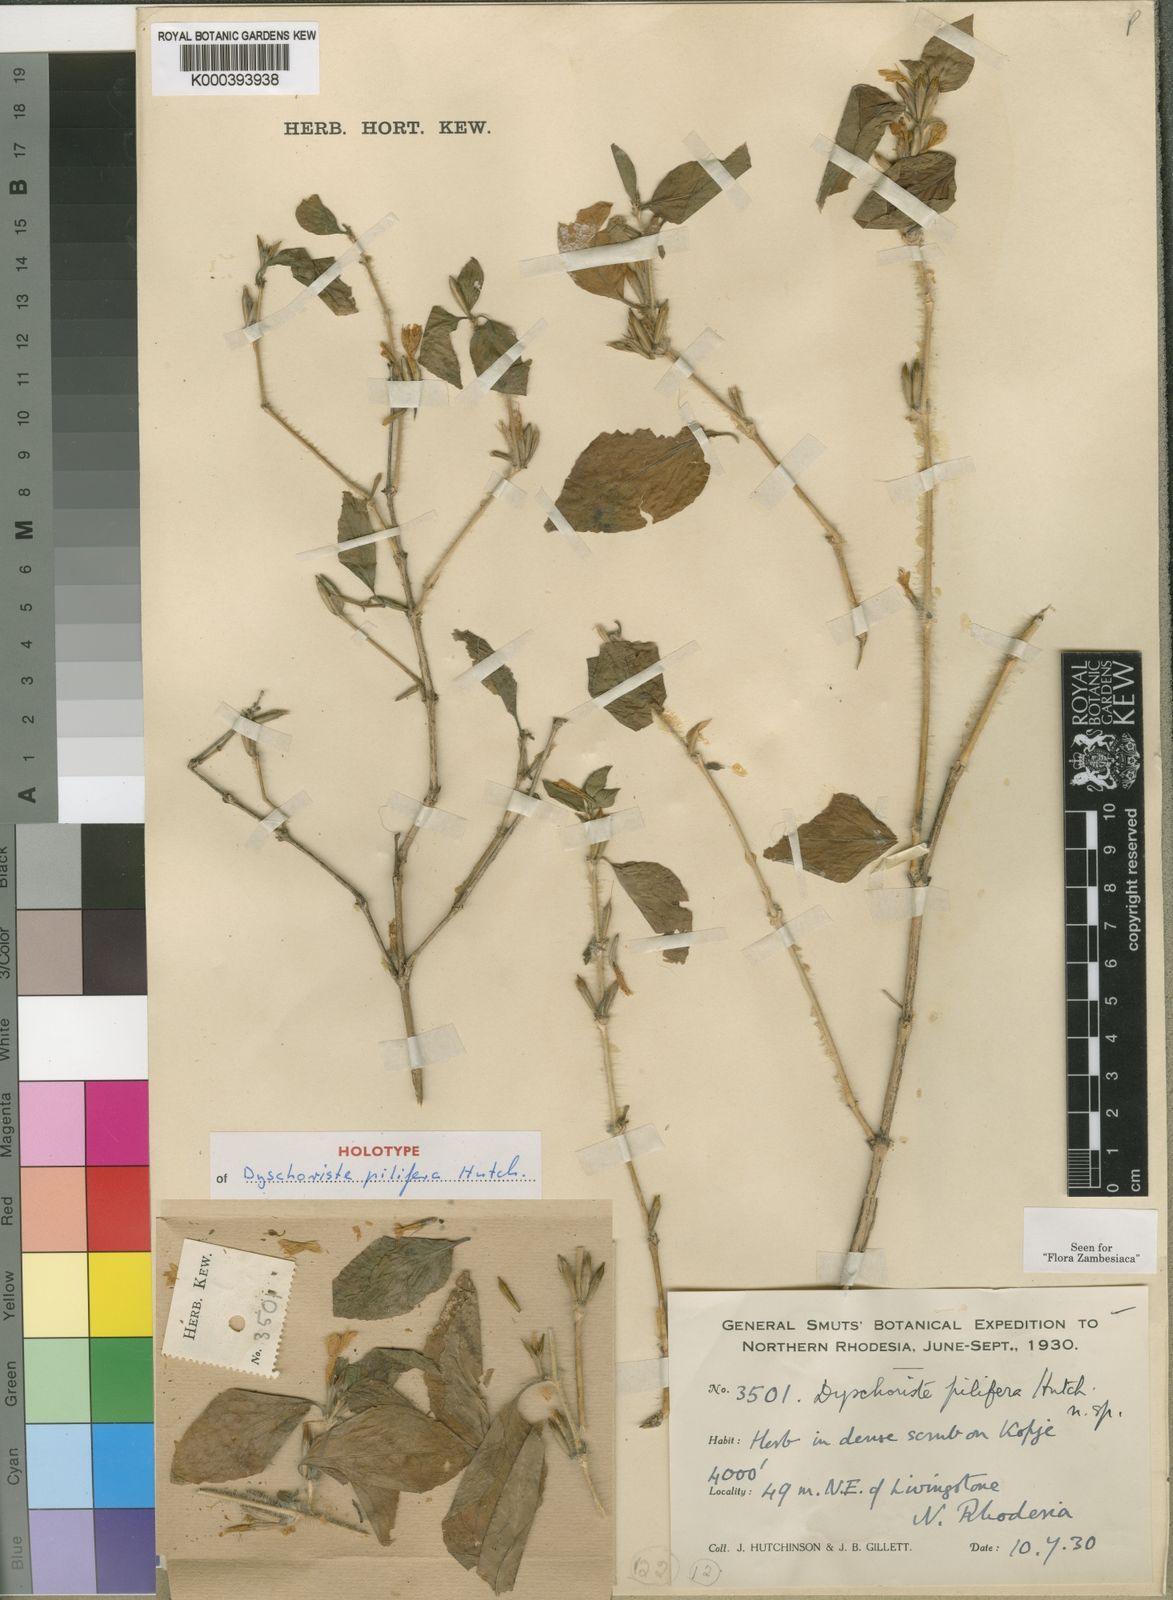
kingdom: Plantae
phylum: Tracheophyta
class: Magnoliopsida
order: Lamiales
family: Acanthaceae
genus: Dyschoriste
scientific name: Dyschoriste pilifera
